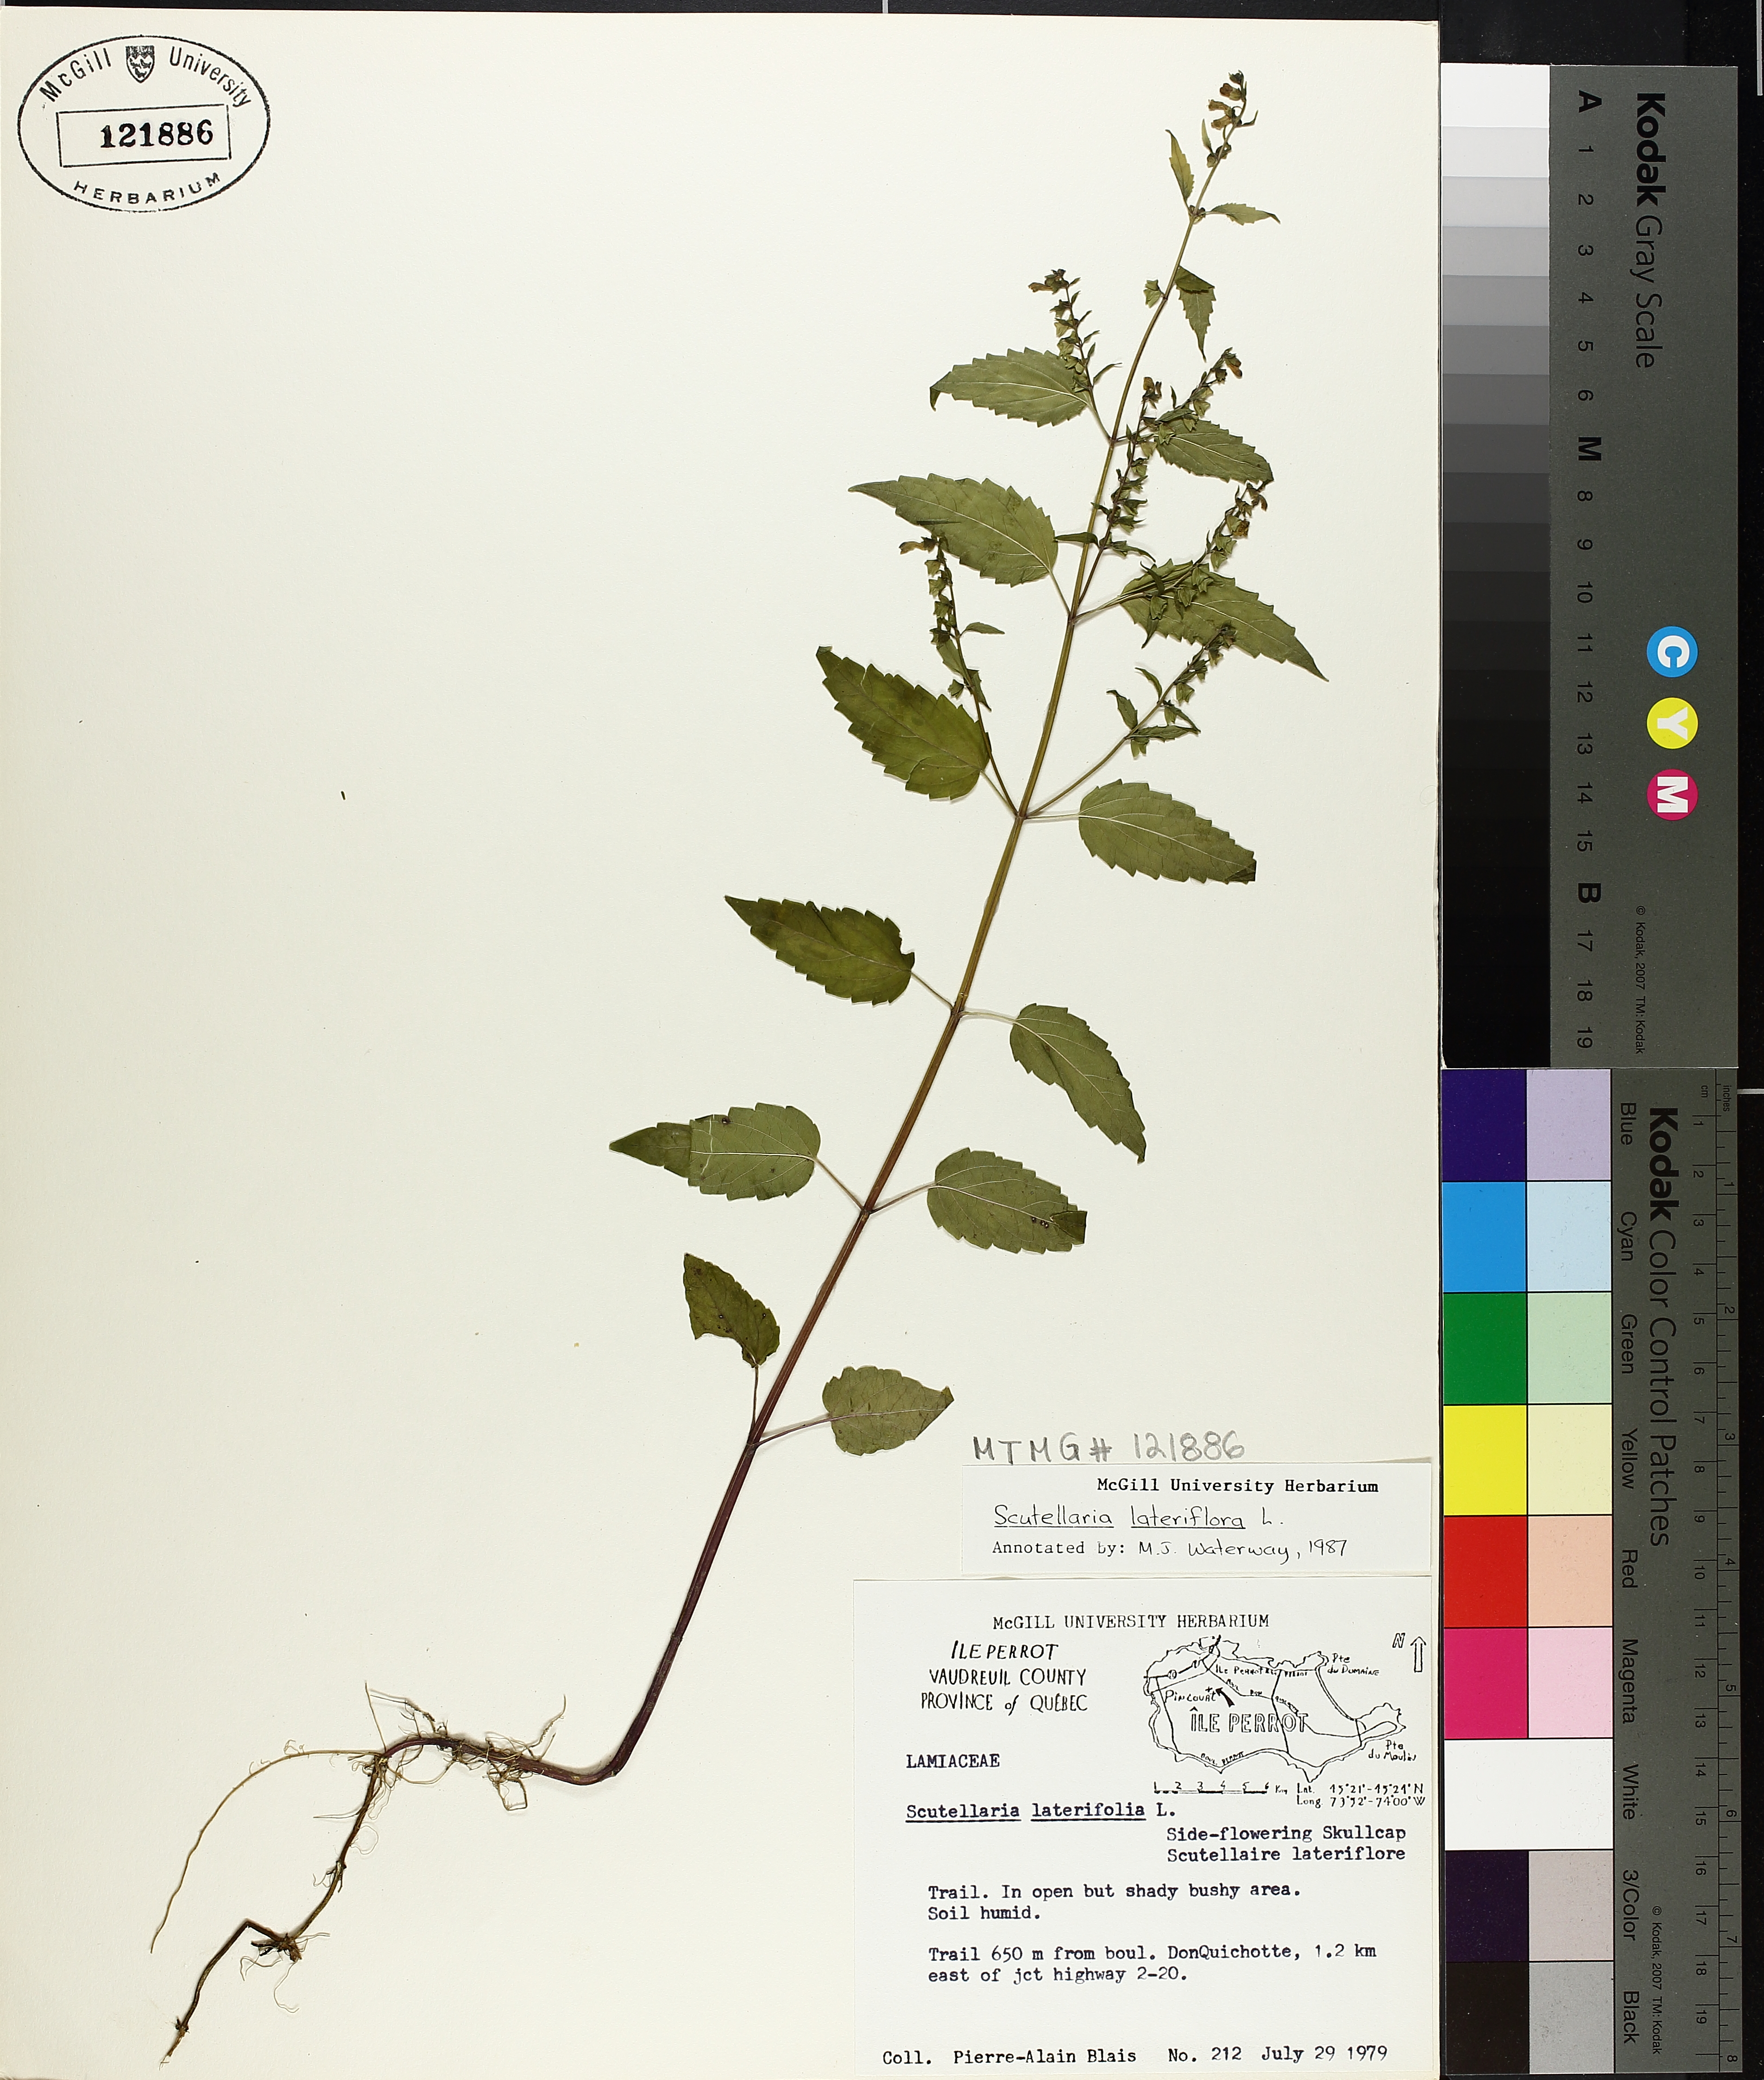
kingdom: Plantae
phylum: Tracheophyta
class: Magnoliopsida
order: Lamiales
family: Lamiaceae
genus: Scutellaria
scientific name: Scutellaria lateriflora
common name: Blue skullcap
